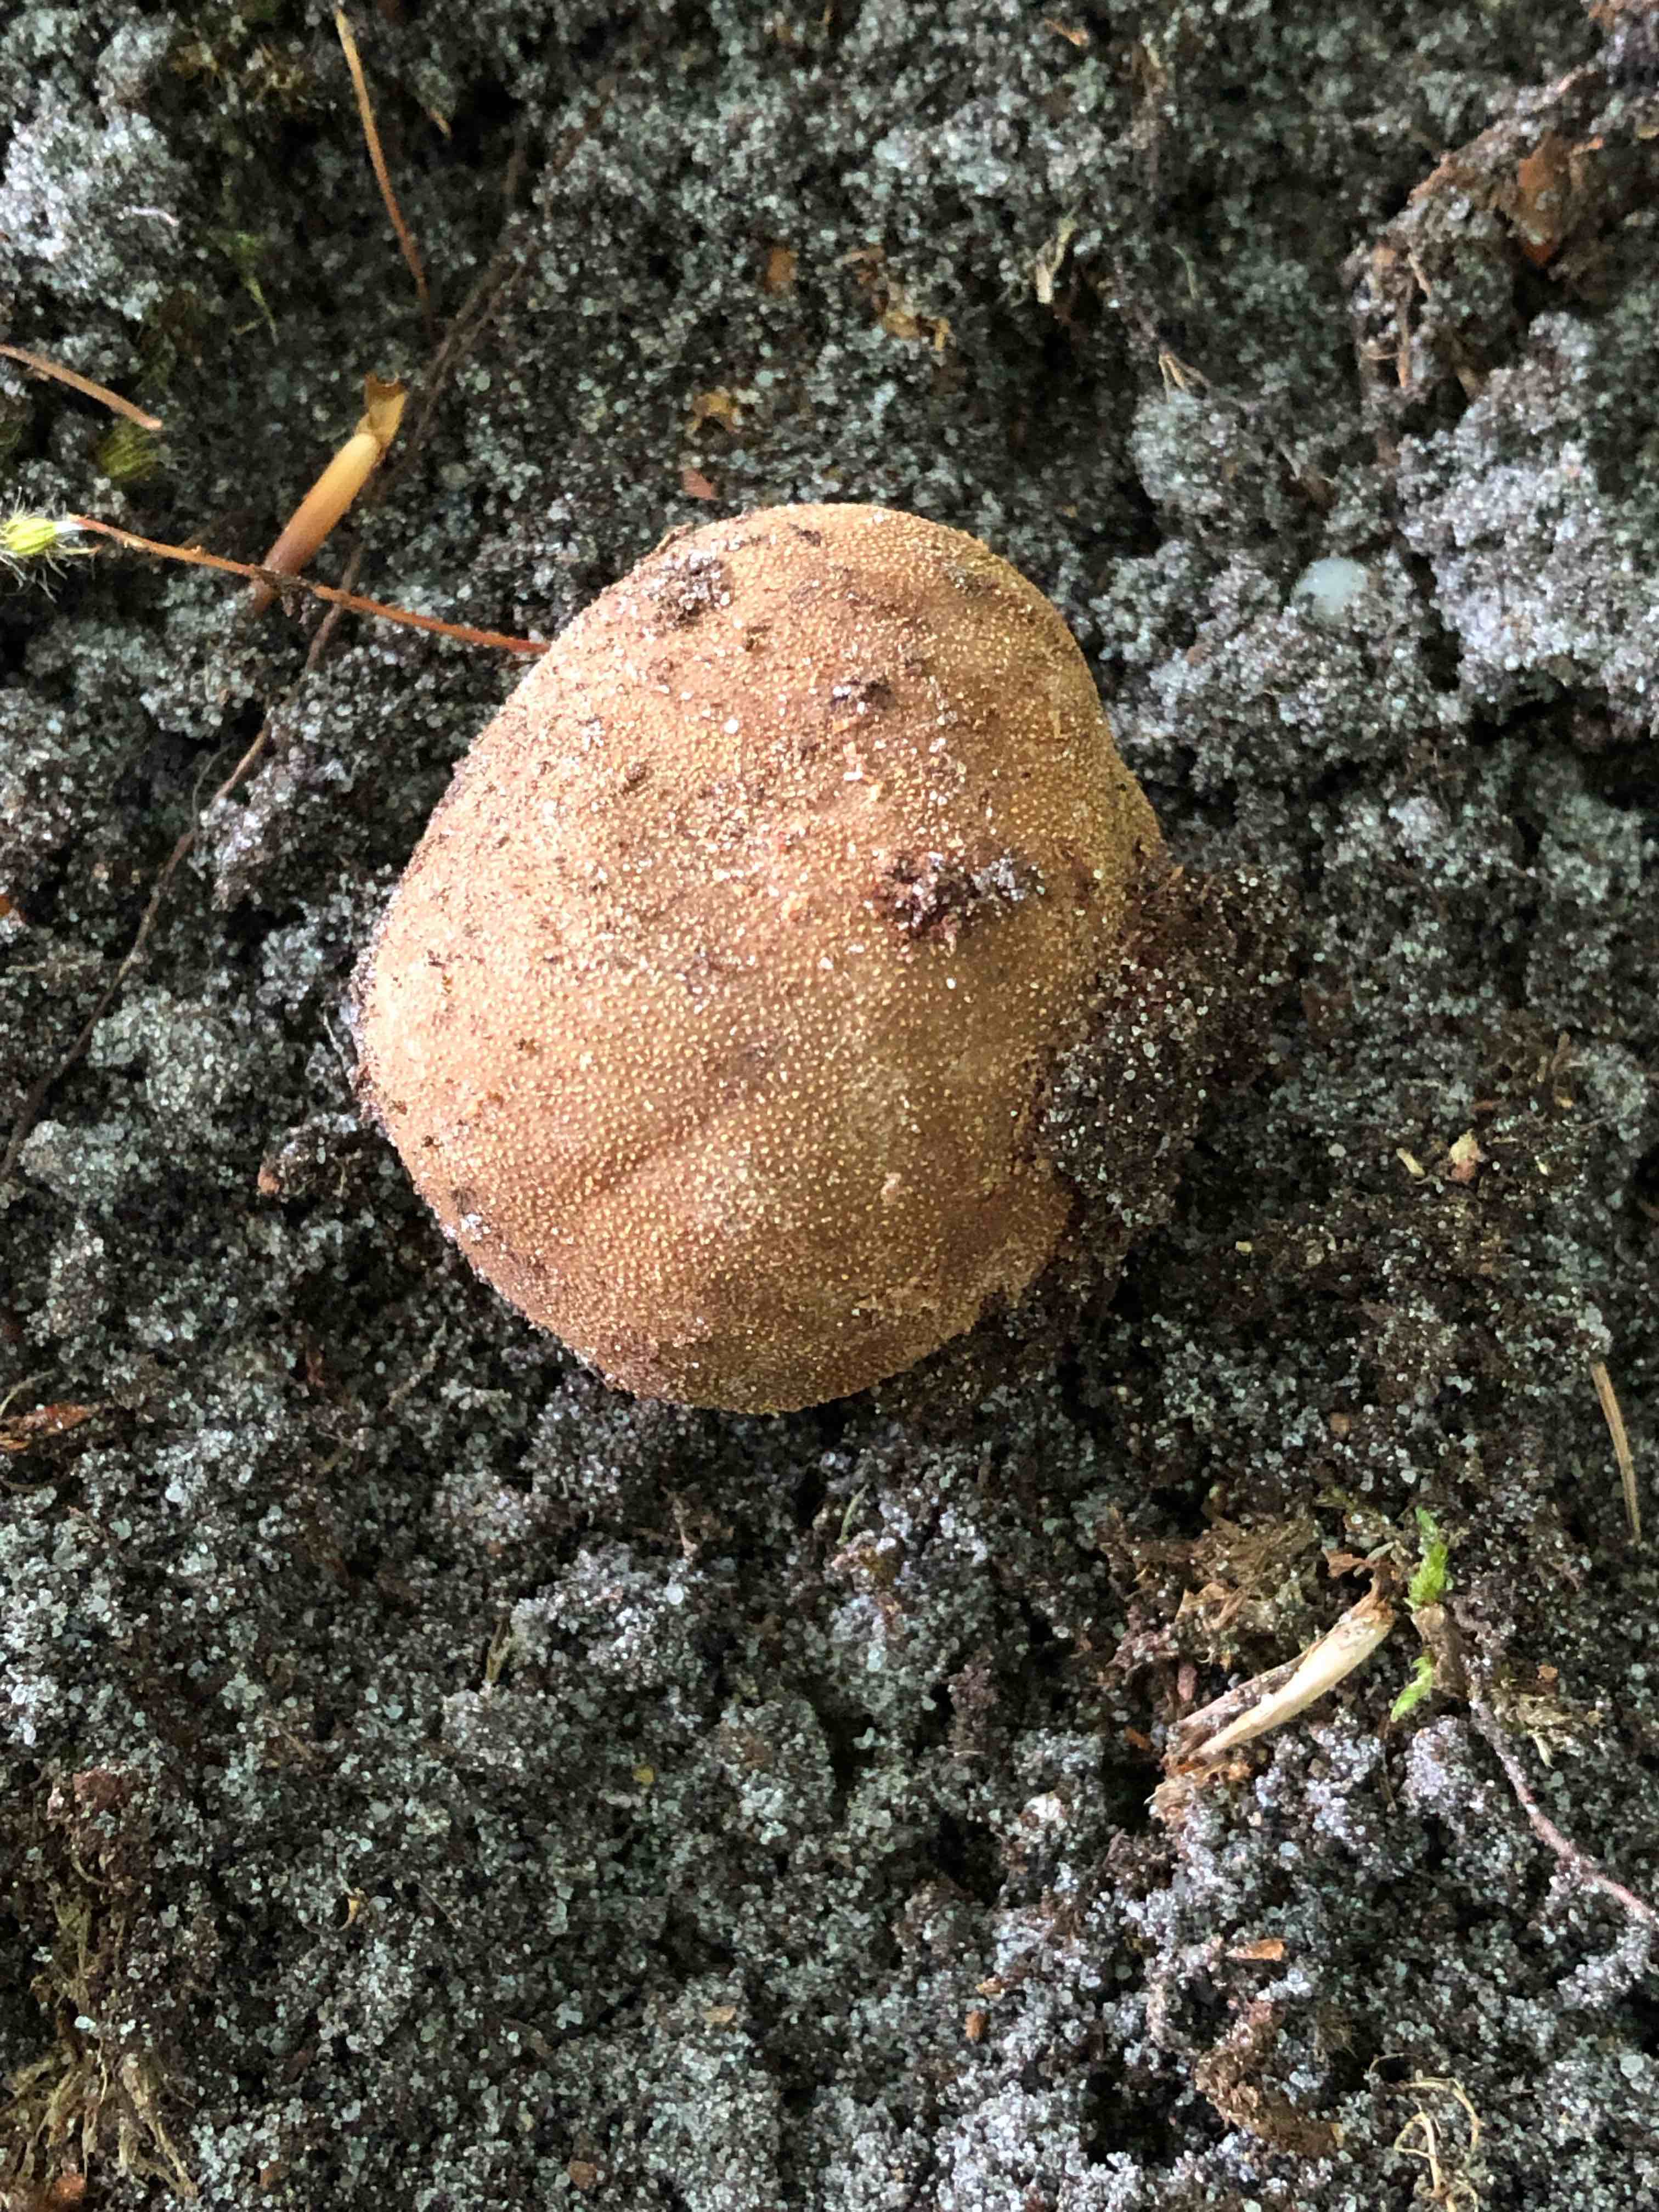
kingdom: Fungi
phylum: Ascomycota
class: Eurotiomycetes
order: Eurotiales
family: Elaphomycetaceae
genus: Elaphomyces
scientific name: Elaphomyces asperulus
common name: vinrød hjortetrøffel
